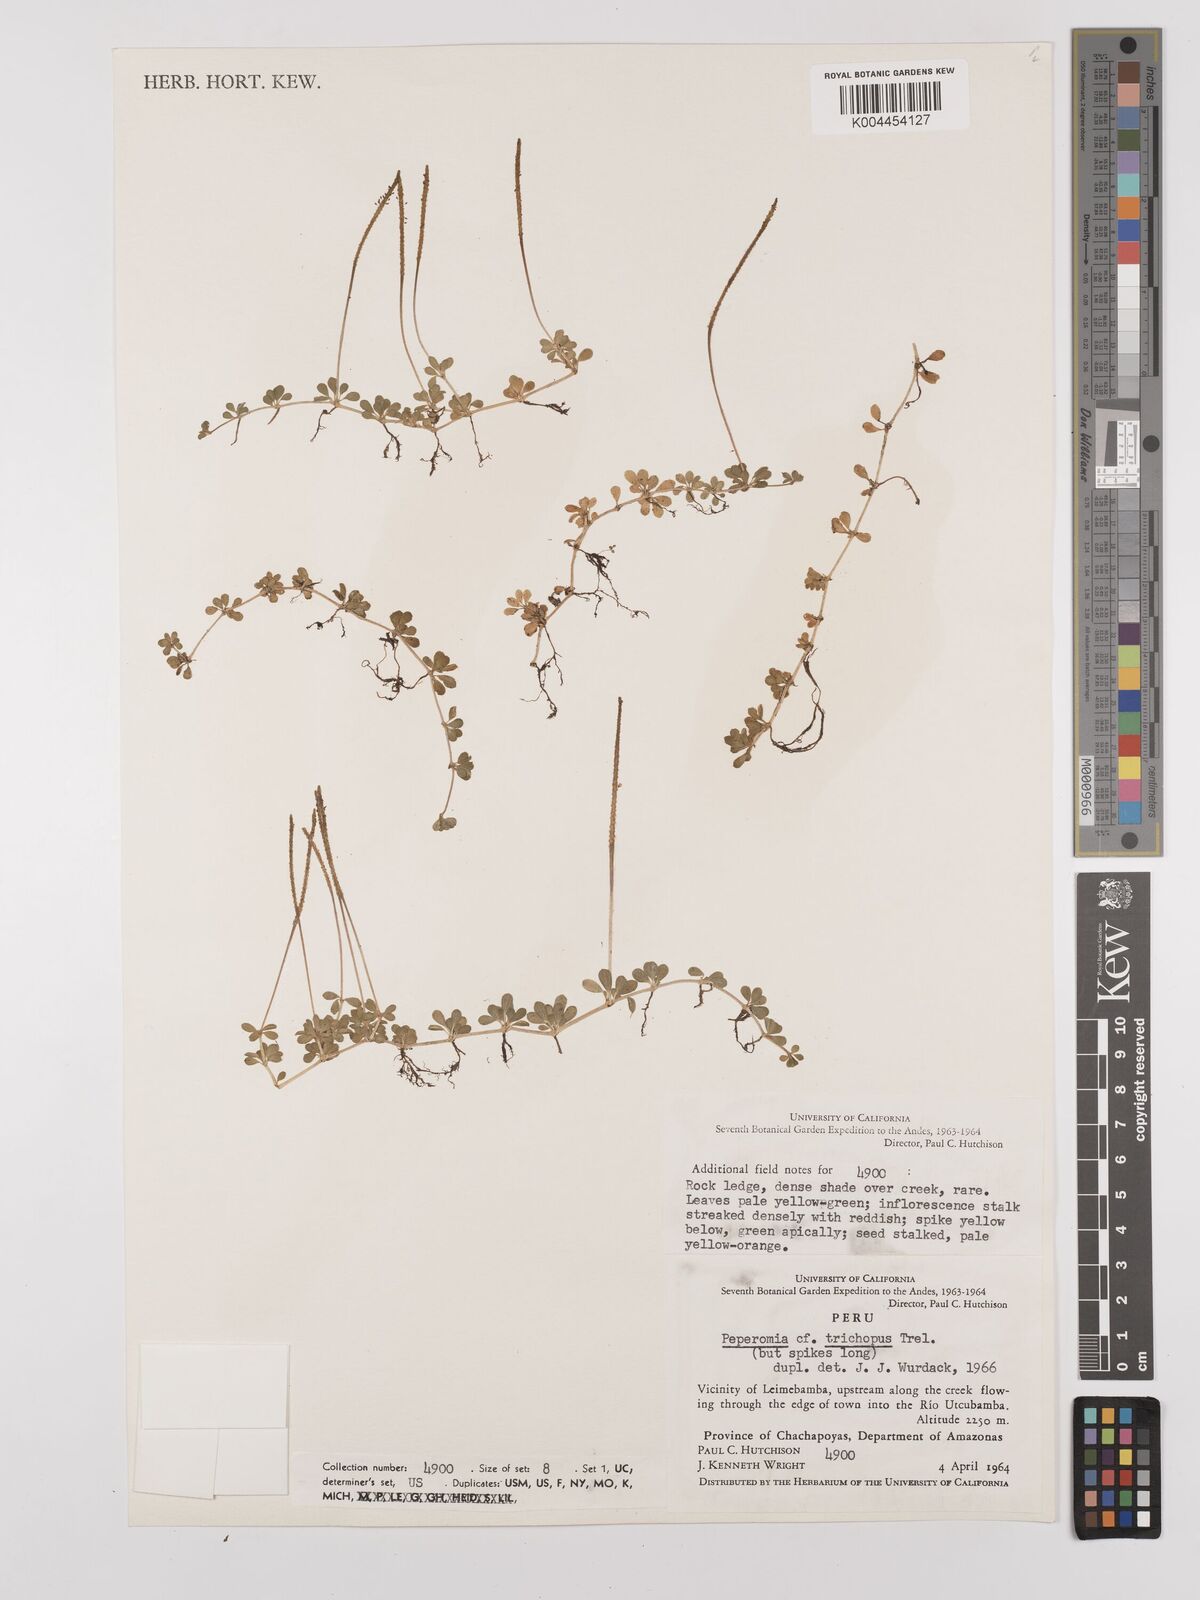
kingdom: Plantae
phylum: Tracheophyta
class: Magnoliopsida
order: Piperales
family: Piperaceae
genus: Peperomia
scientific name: Peperomia trichopus
